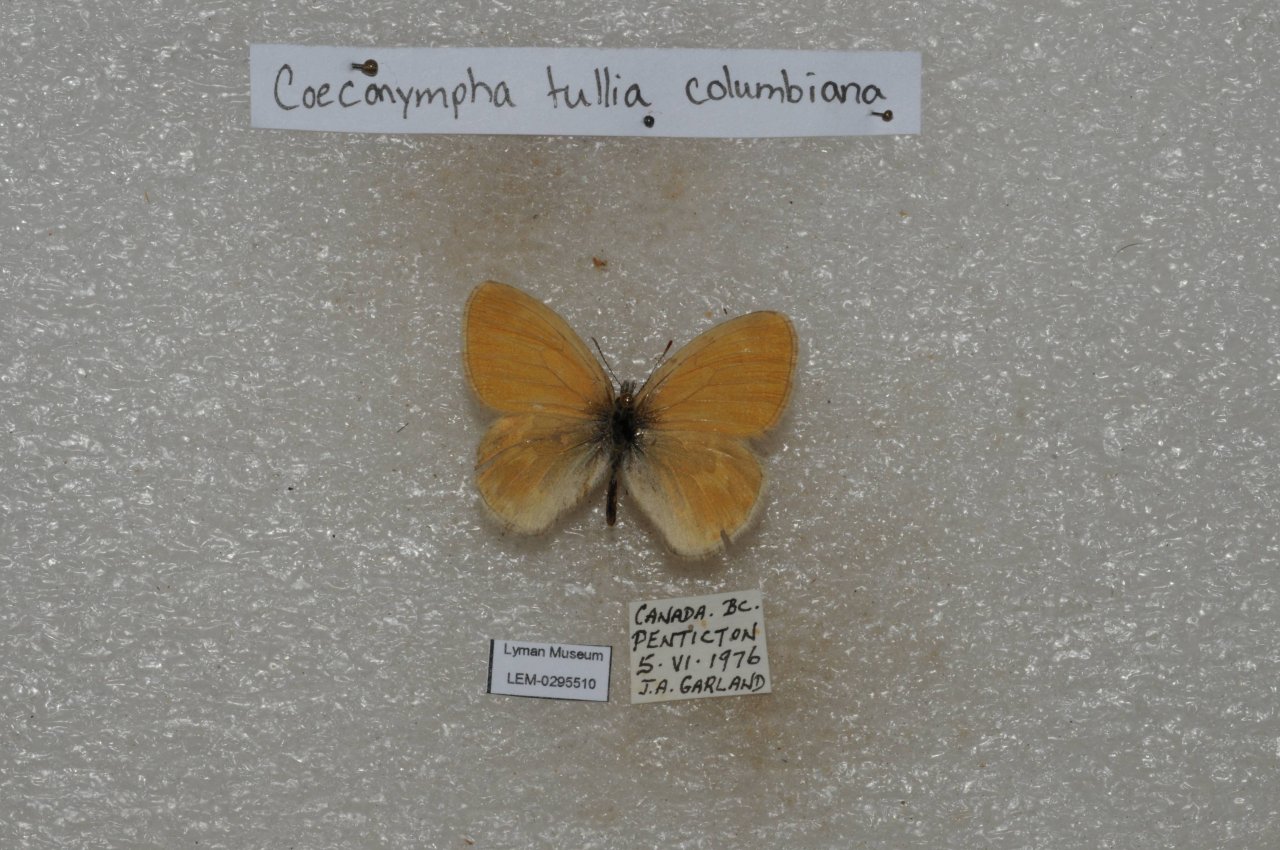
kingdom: Animalia
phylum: Arthropoda
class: Insecta
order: Lepidoptera
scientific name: Lepidoptera
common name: Butterflies
